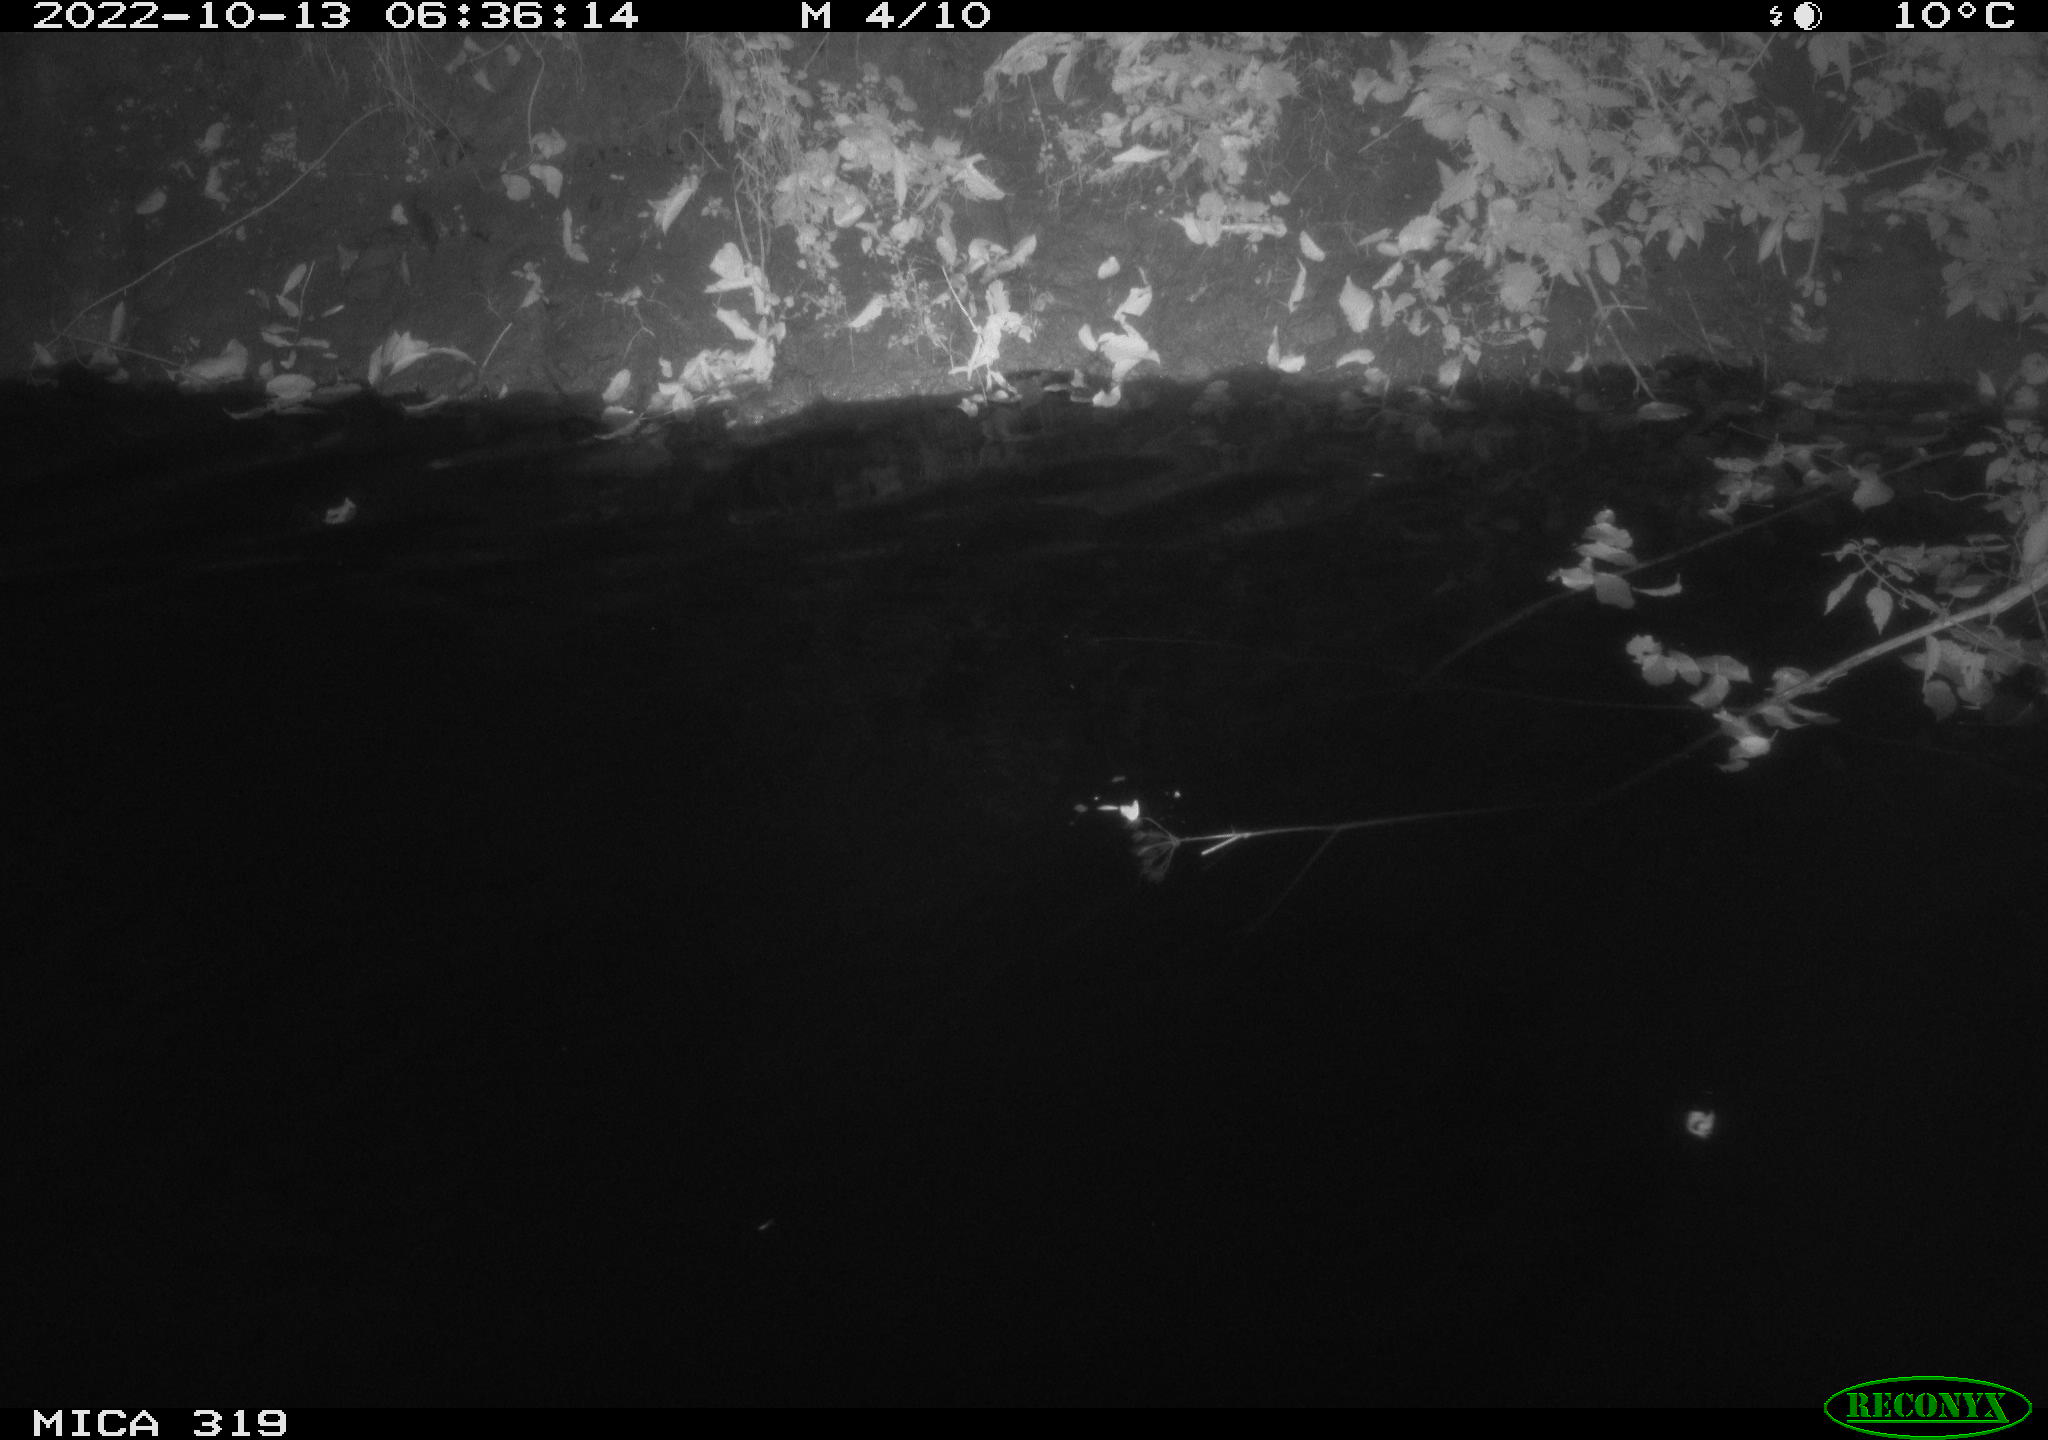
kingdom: Animalia
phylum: Chordata
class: Aves
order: Anseriformes
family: Anatidae
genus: Anas
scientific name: Anas
